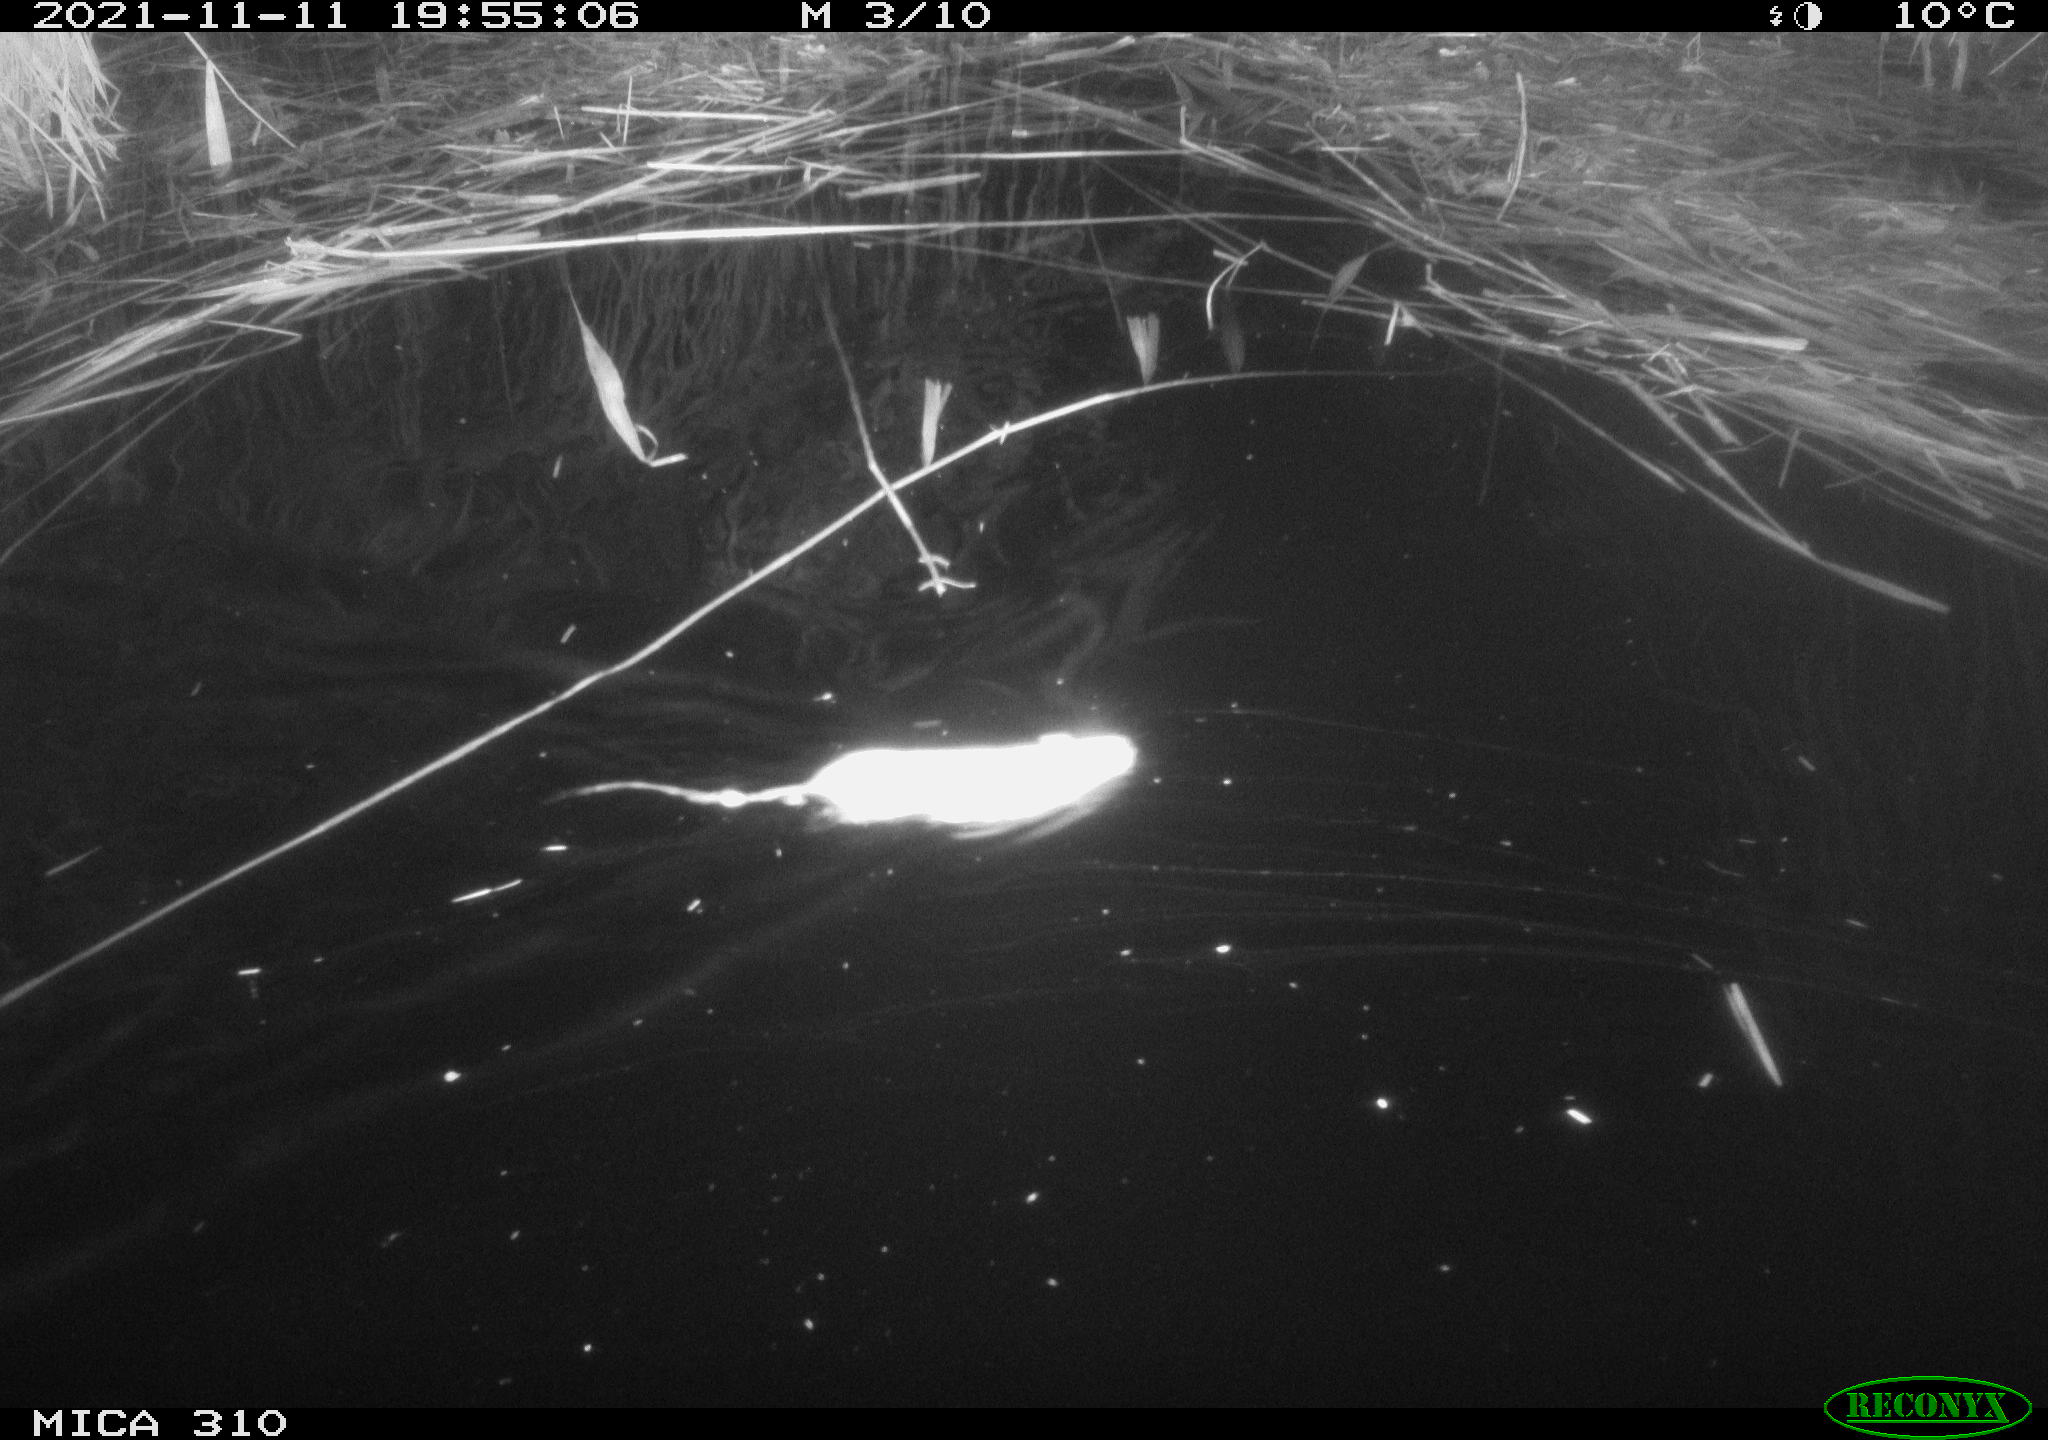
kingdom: Animalia
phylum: Chordata
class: Mammalia
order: Rodentia
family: Muridae
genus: Rattus
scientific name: Rattus norvegicus
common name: Brown rat
